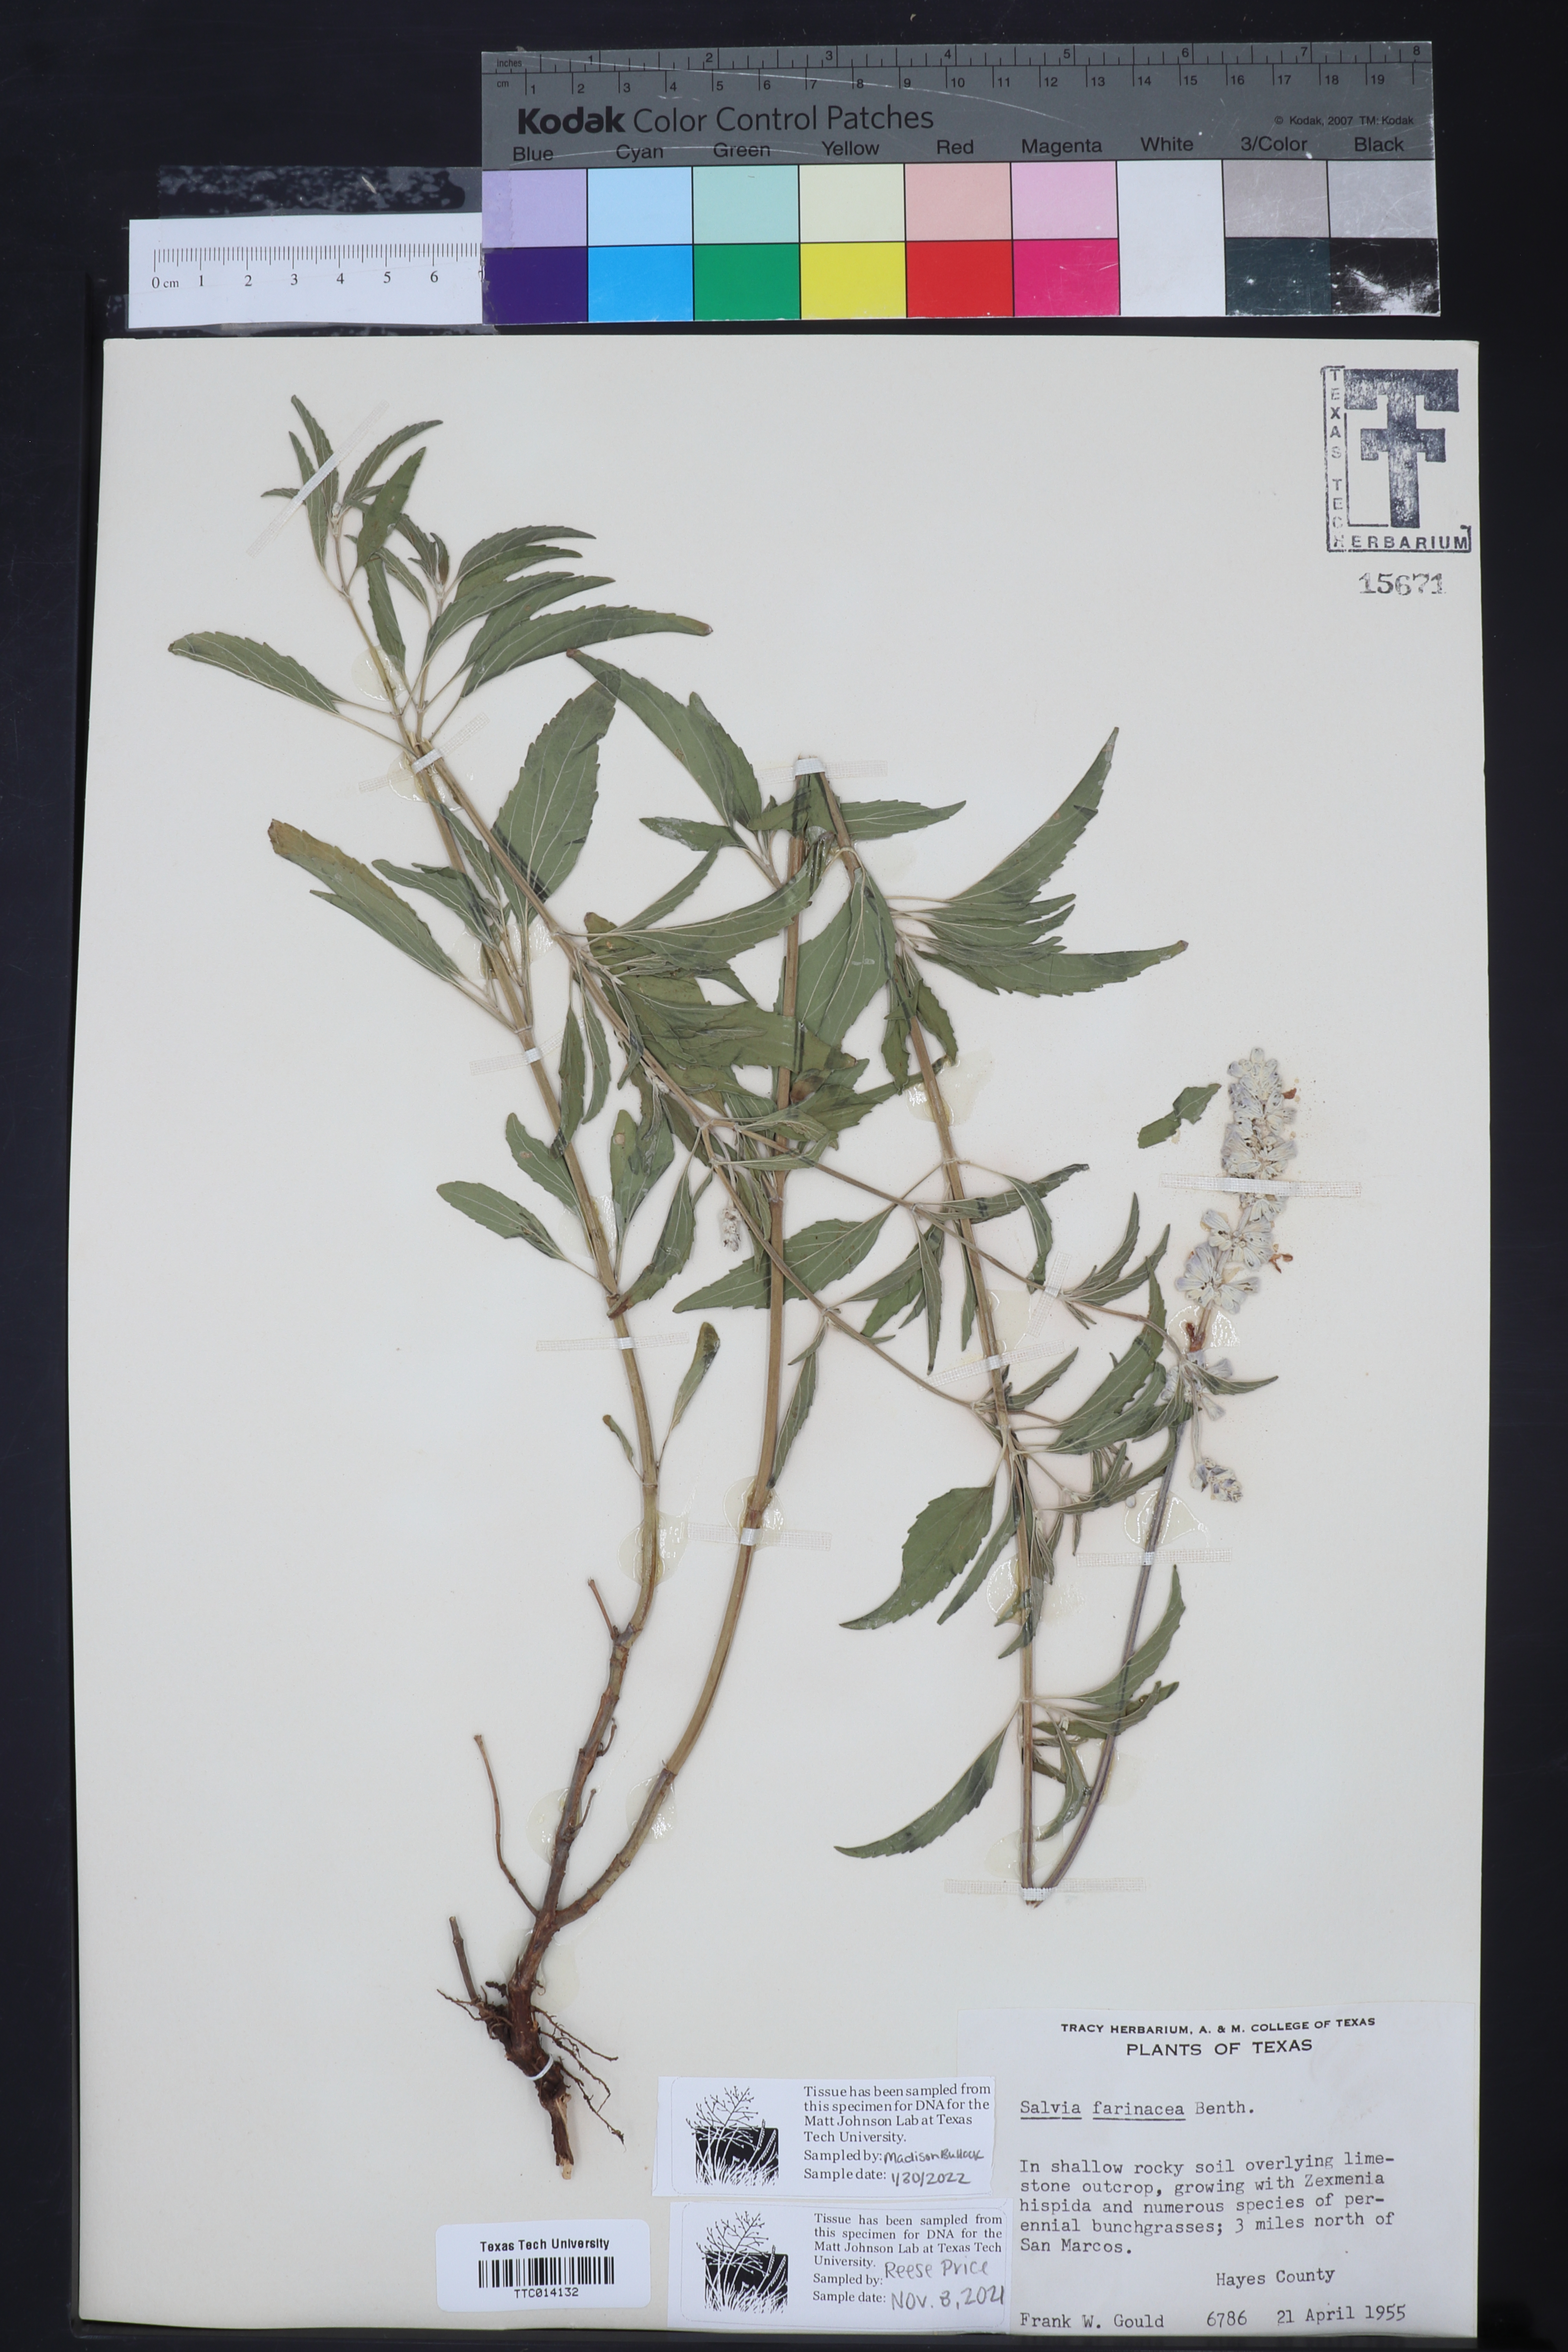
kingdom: Plantae
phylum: Tracheophyta
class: Magnoliopsida
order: Lamiales
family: Lamiaceae
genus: Salvia
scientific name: Salvia farinacea
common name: Mealy sage
